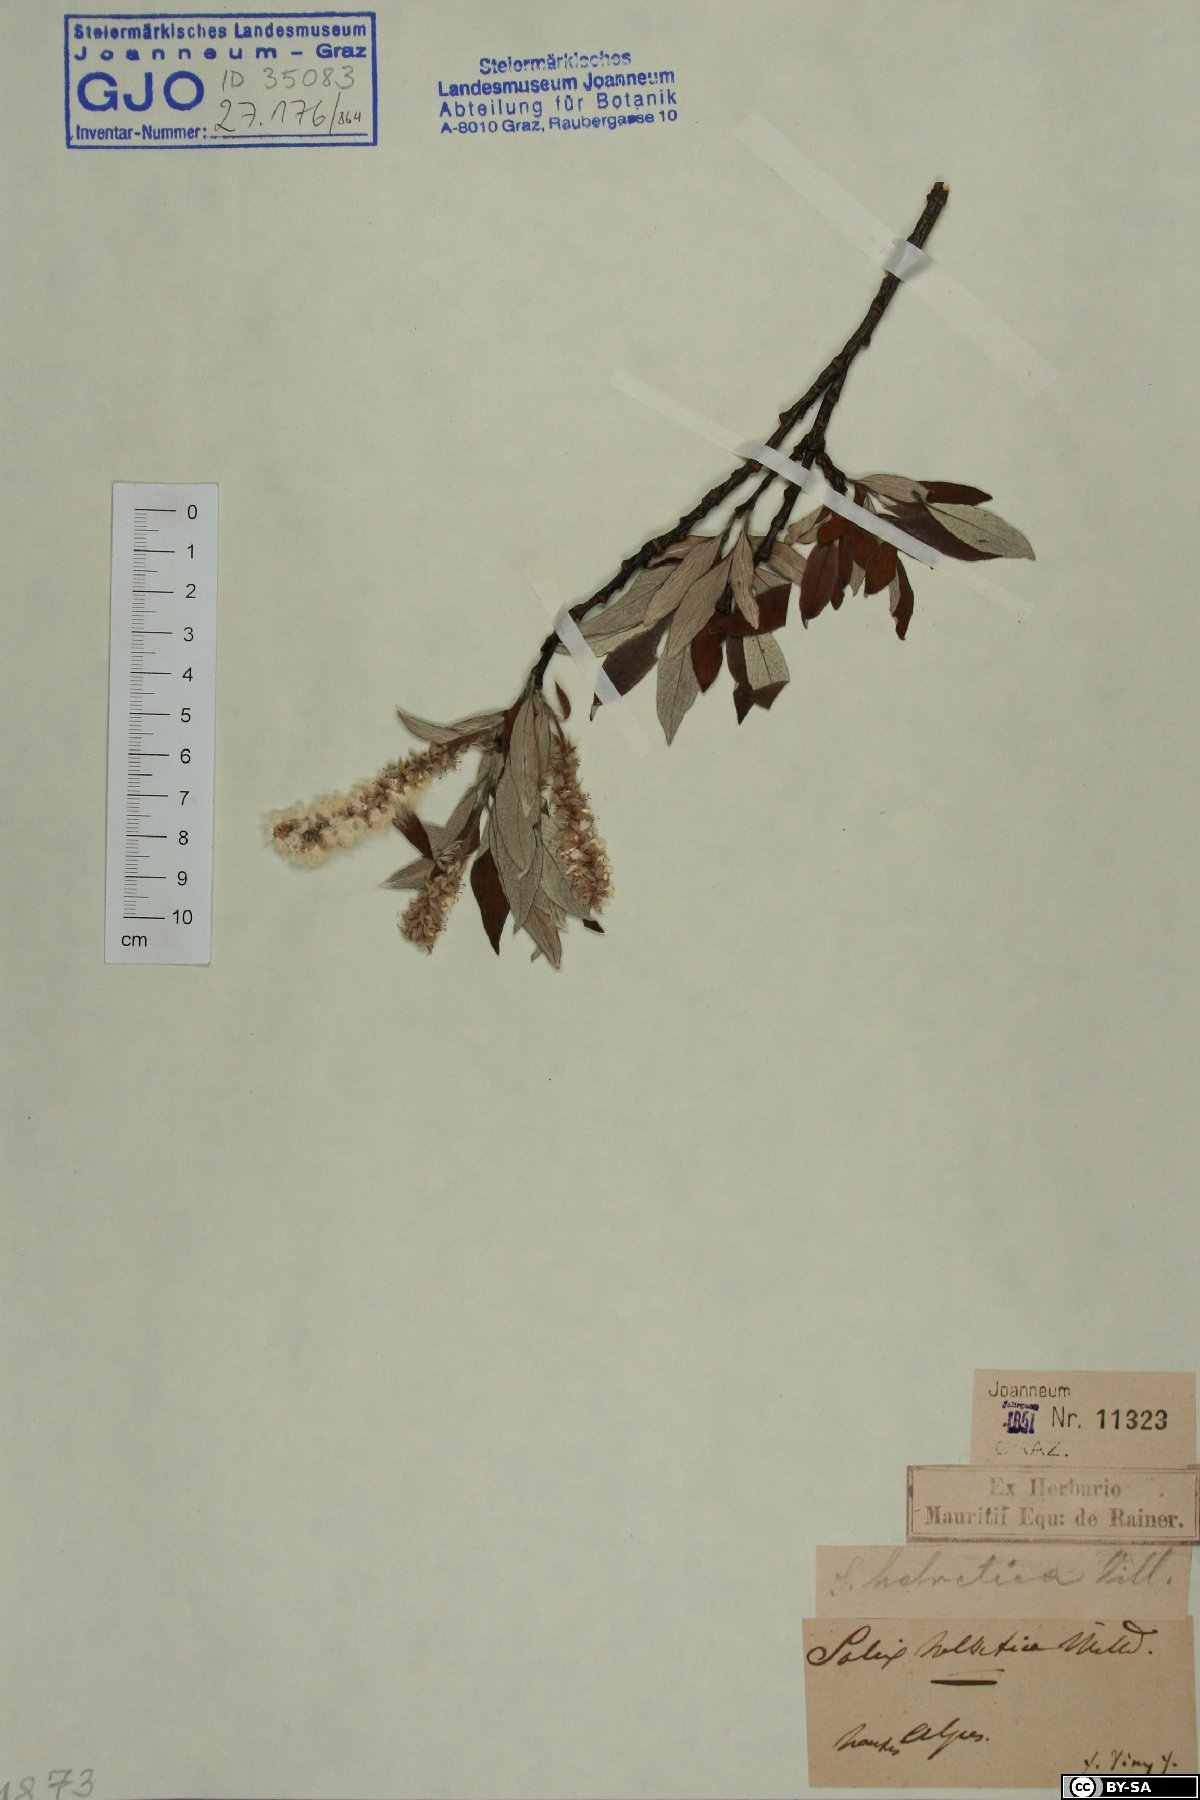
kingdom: Plantae
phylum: Tracheophyta
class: Magnoliopsida
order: Malpighiales
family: Salicaceae
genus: Salix
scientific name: Salix helvetica
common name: Swiss willow
